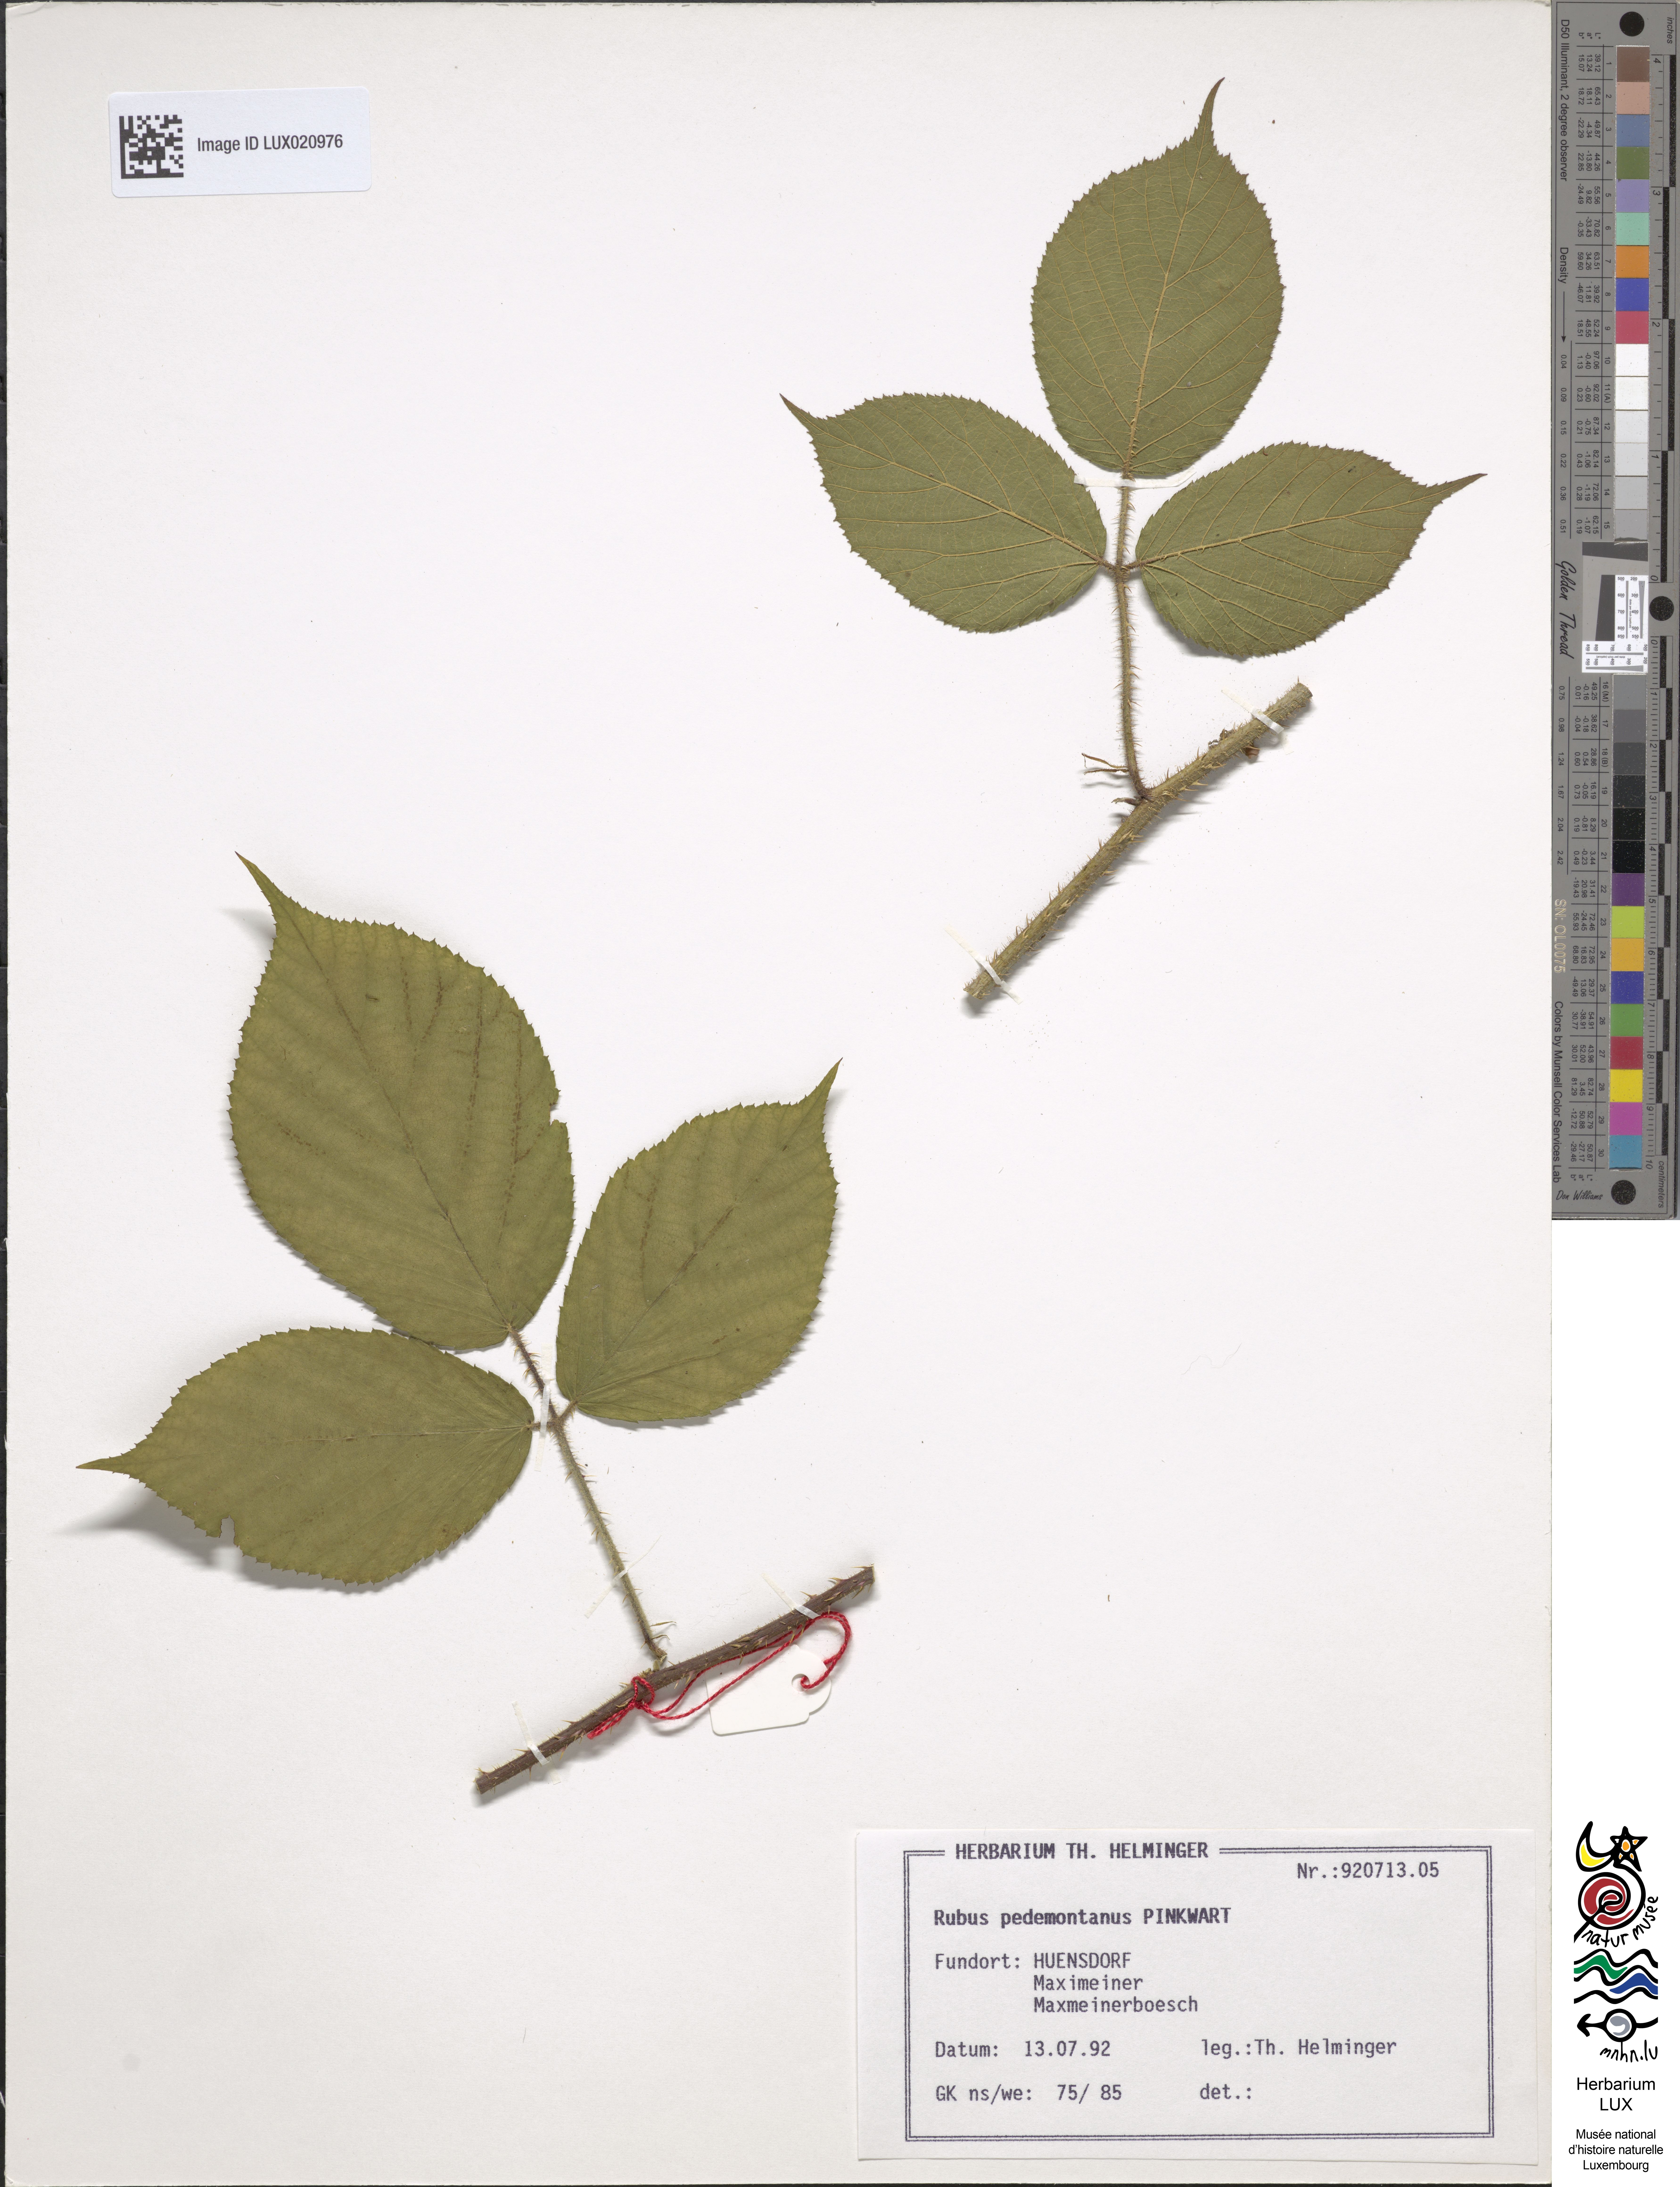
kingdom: Plantae
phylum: Tracheophyta
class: Magnoliopsida
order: Rosales
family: Rosaceae
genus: Rubus
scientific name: Rubus nigricans
